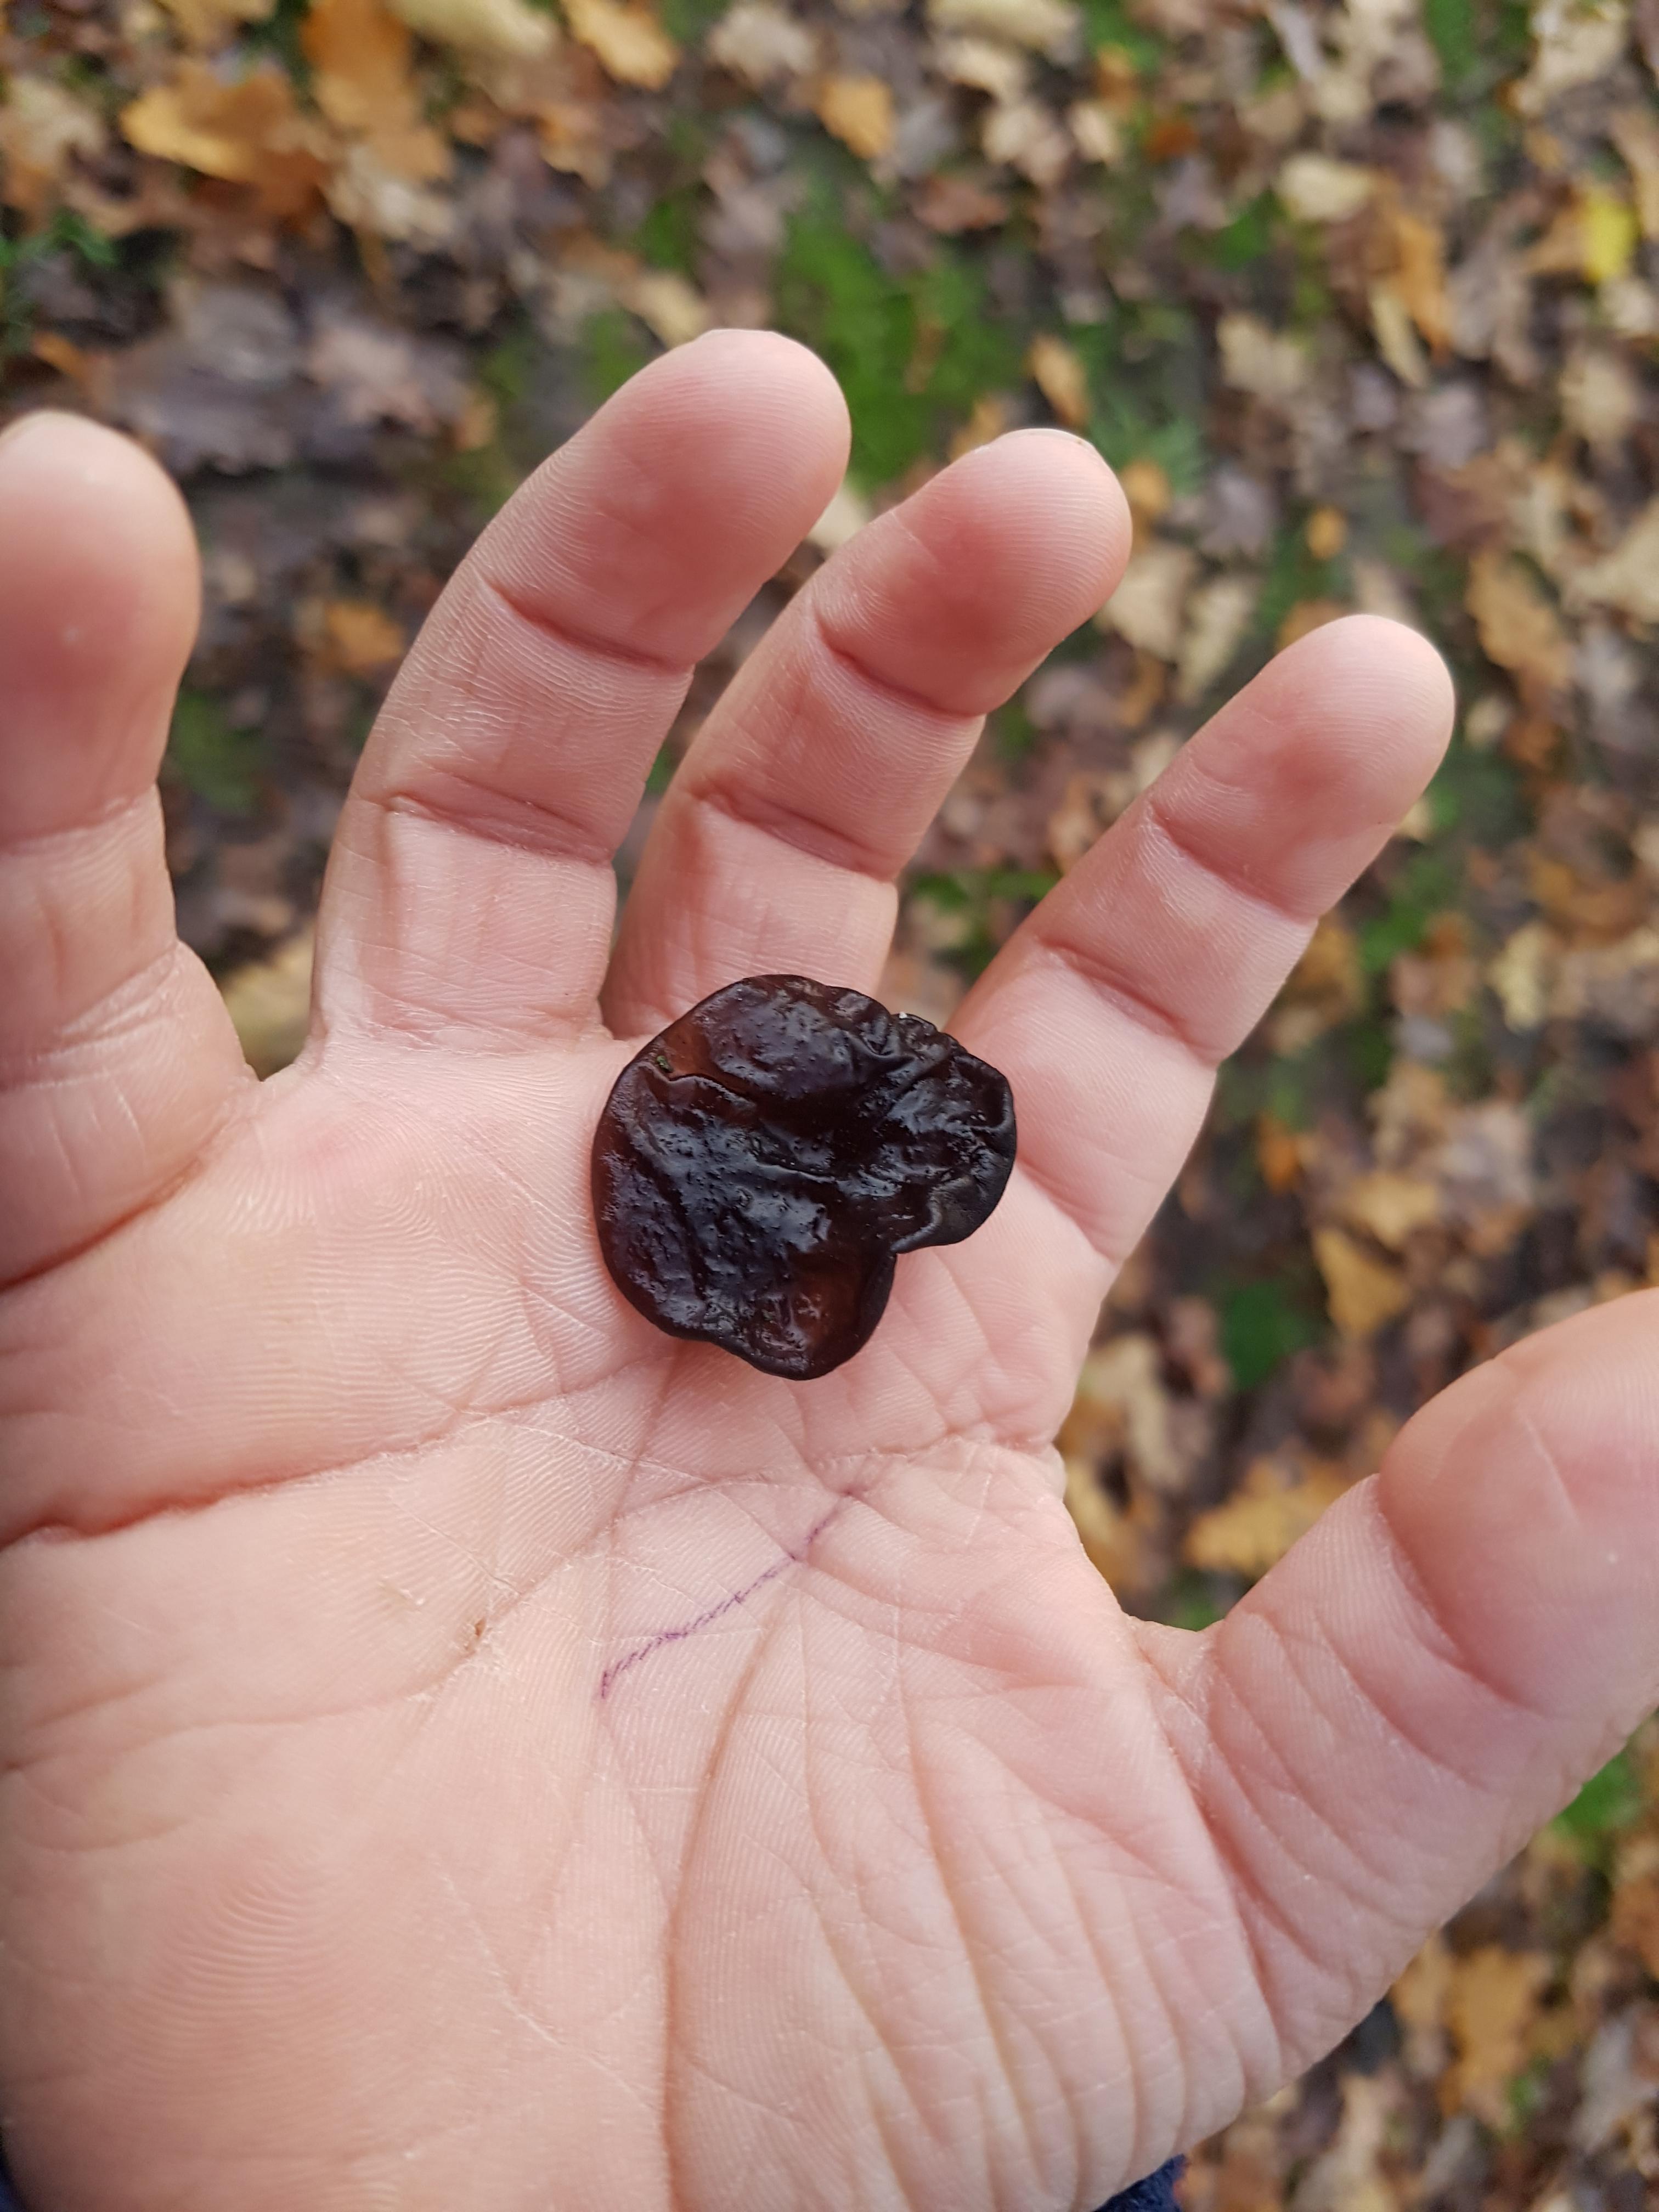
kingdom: Fungi
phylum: Basidiomycota
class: Agaricomycetes
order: Auriculariales
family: Auriculariaceae
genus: Exidia
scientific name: Exidia glandulosa
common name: ege-bævretop
